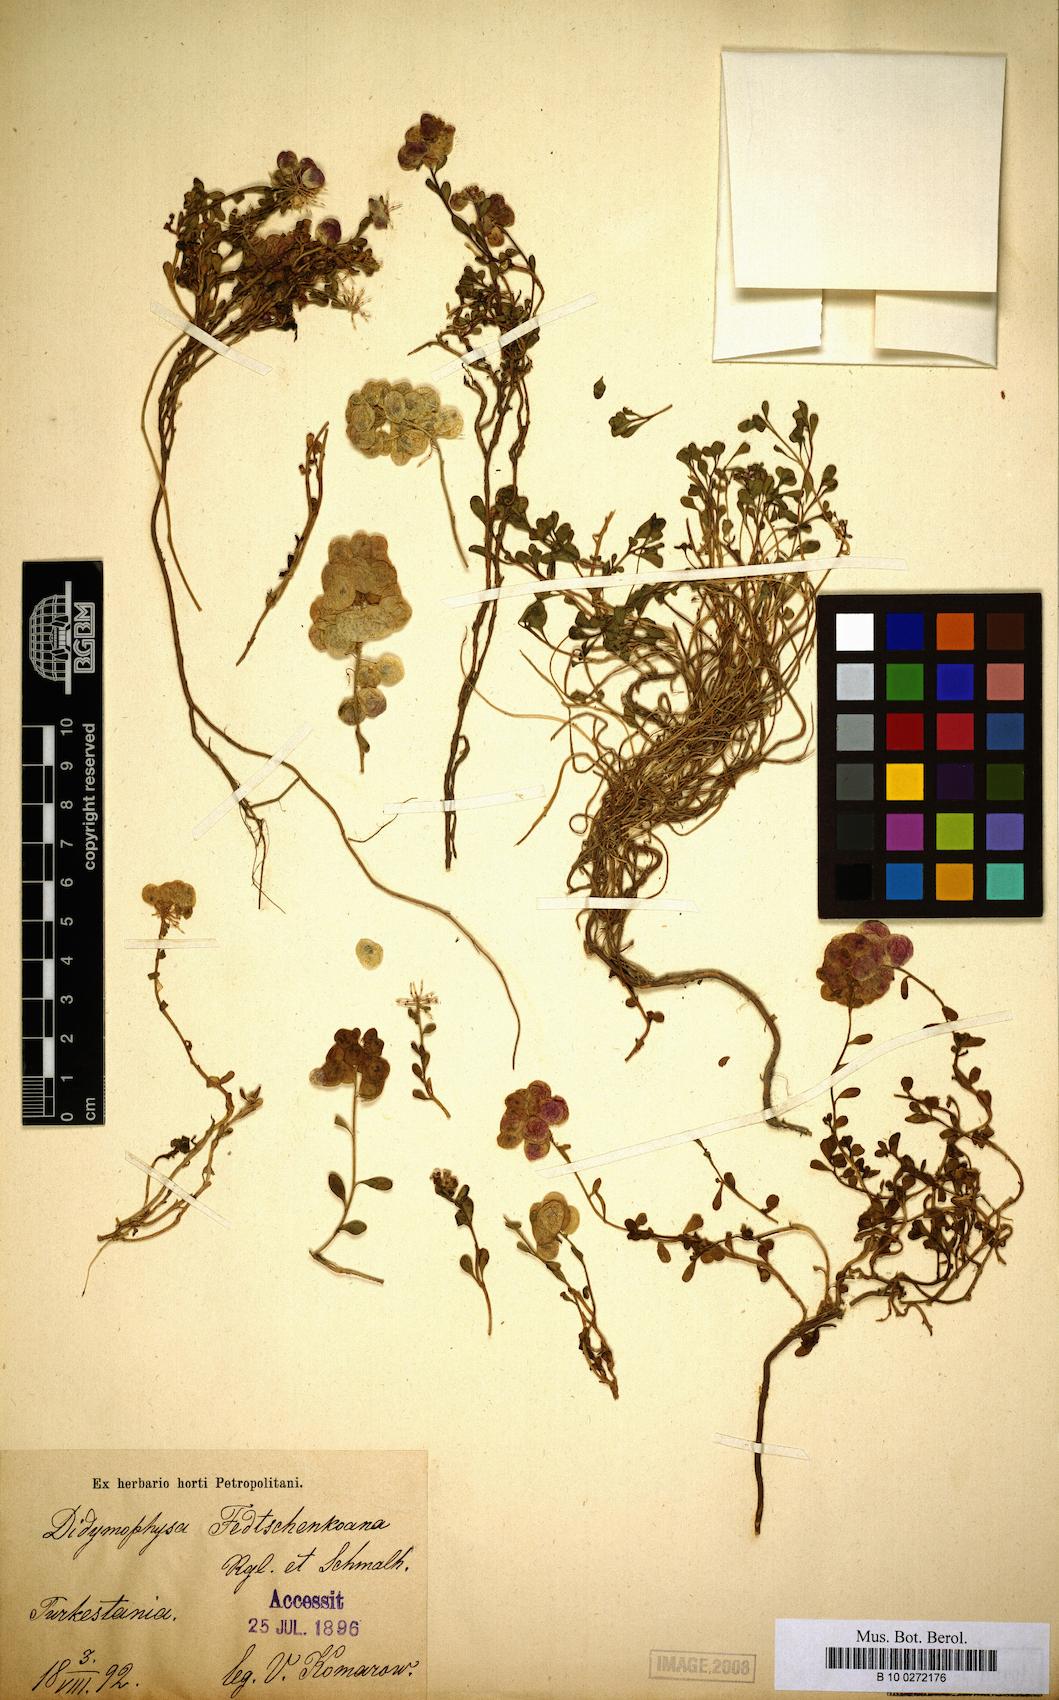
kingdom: Plantae
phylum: Tracheophyta
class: Magnoliopsida
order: Brassicales
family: Brassicaceae
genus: Didymophysa
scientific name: Didymophysa fedtschenkoana
